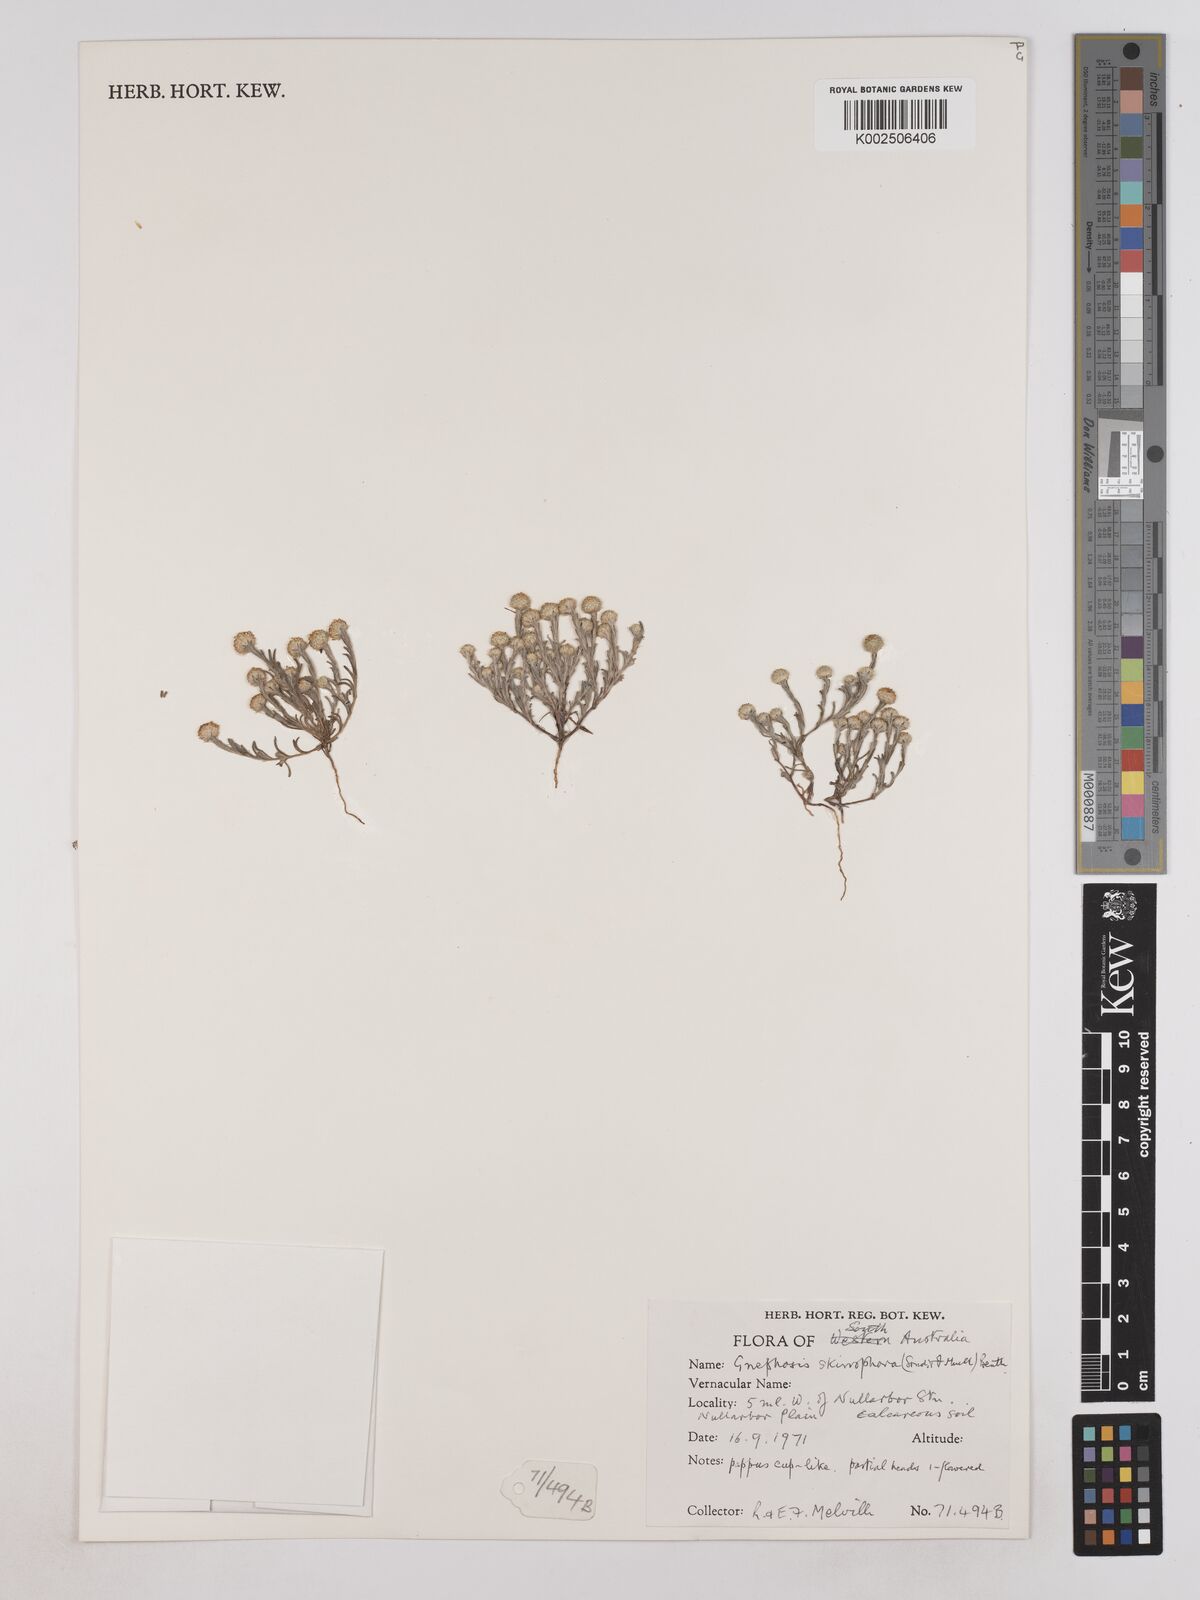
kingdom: Plantae
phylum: Tracheophyta
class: Magnoliopsida
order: Asterales
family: Asteraceae
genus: Trichanthodium
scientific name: Trichanthodium skirrophorum
